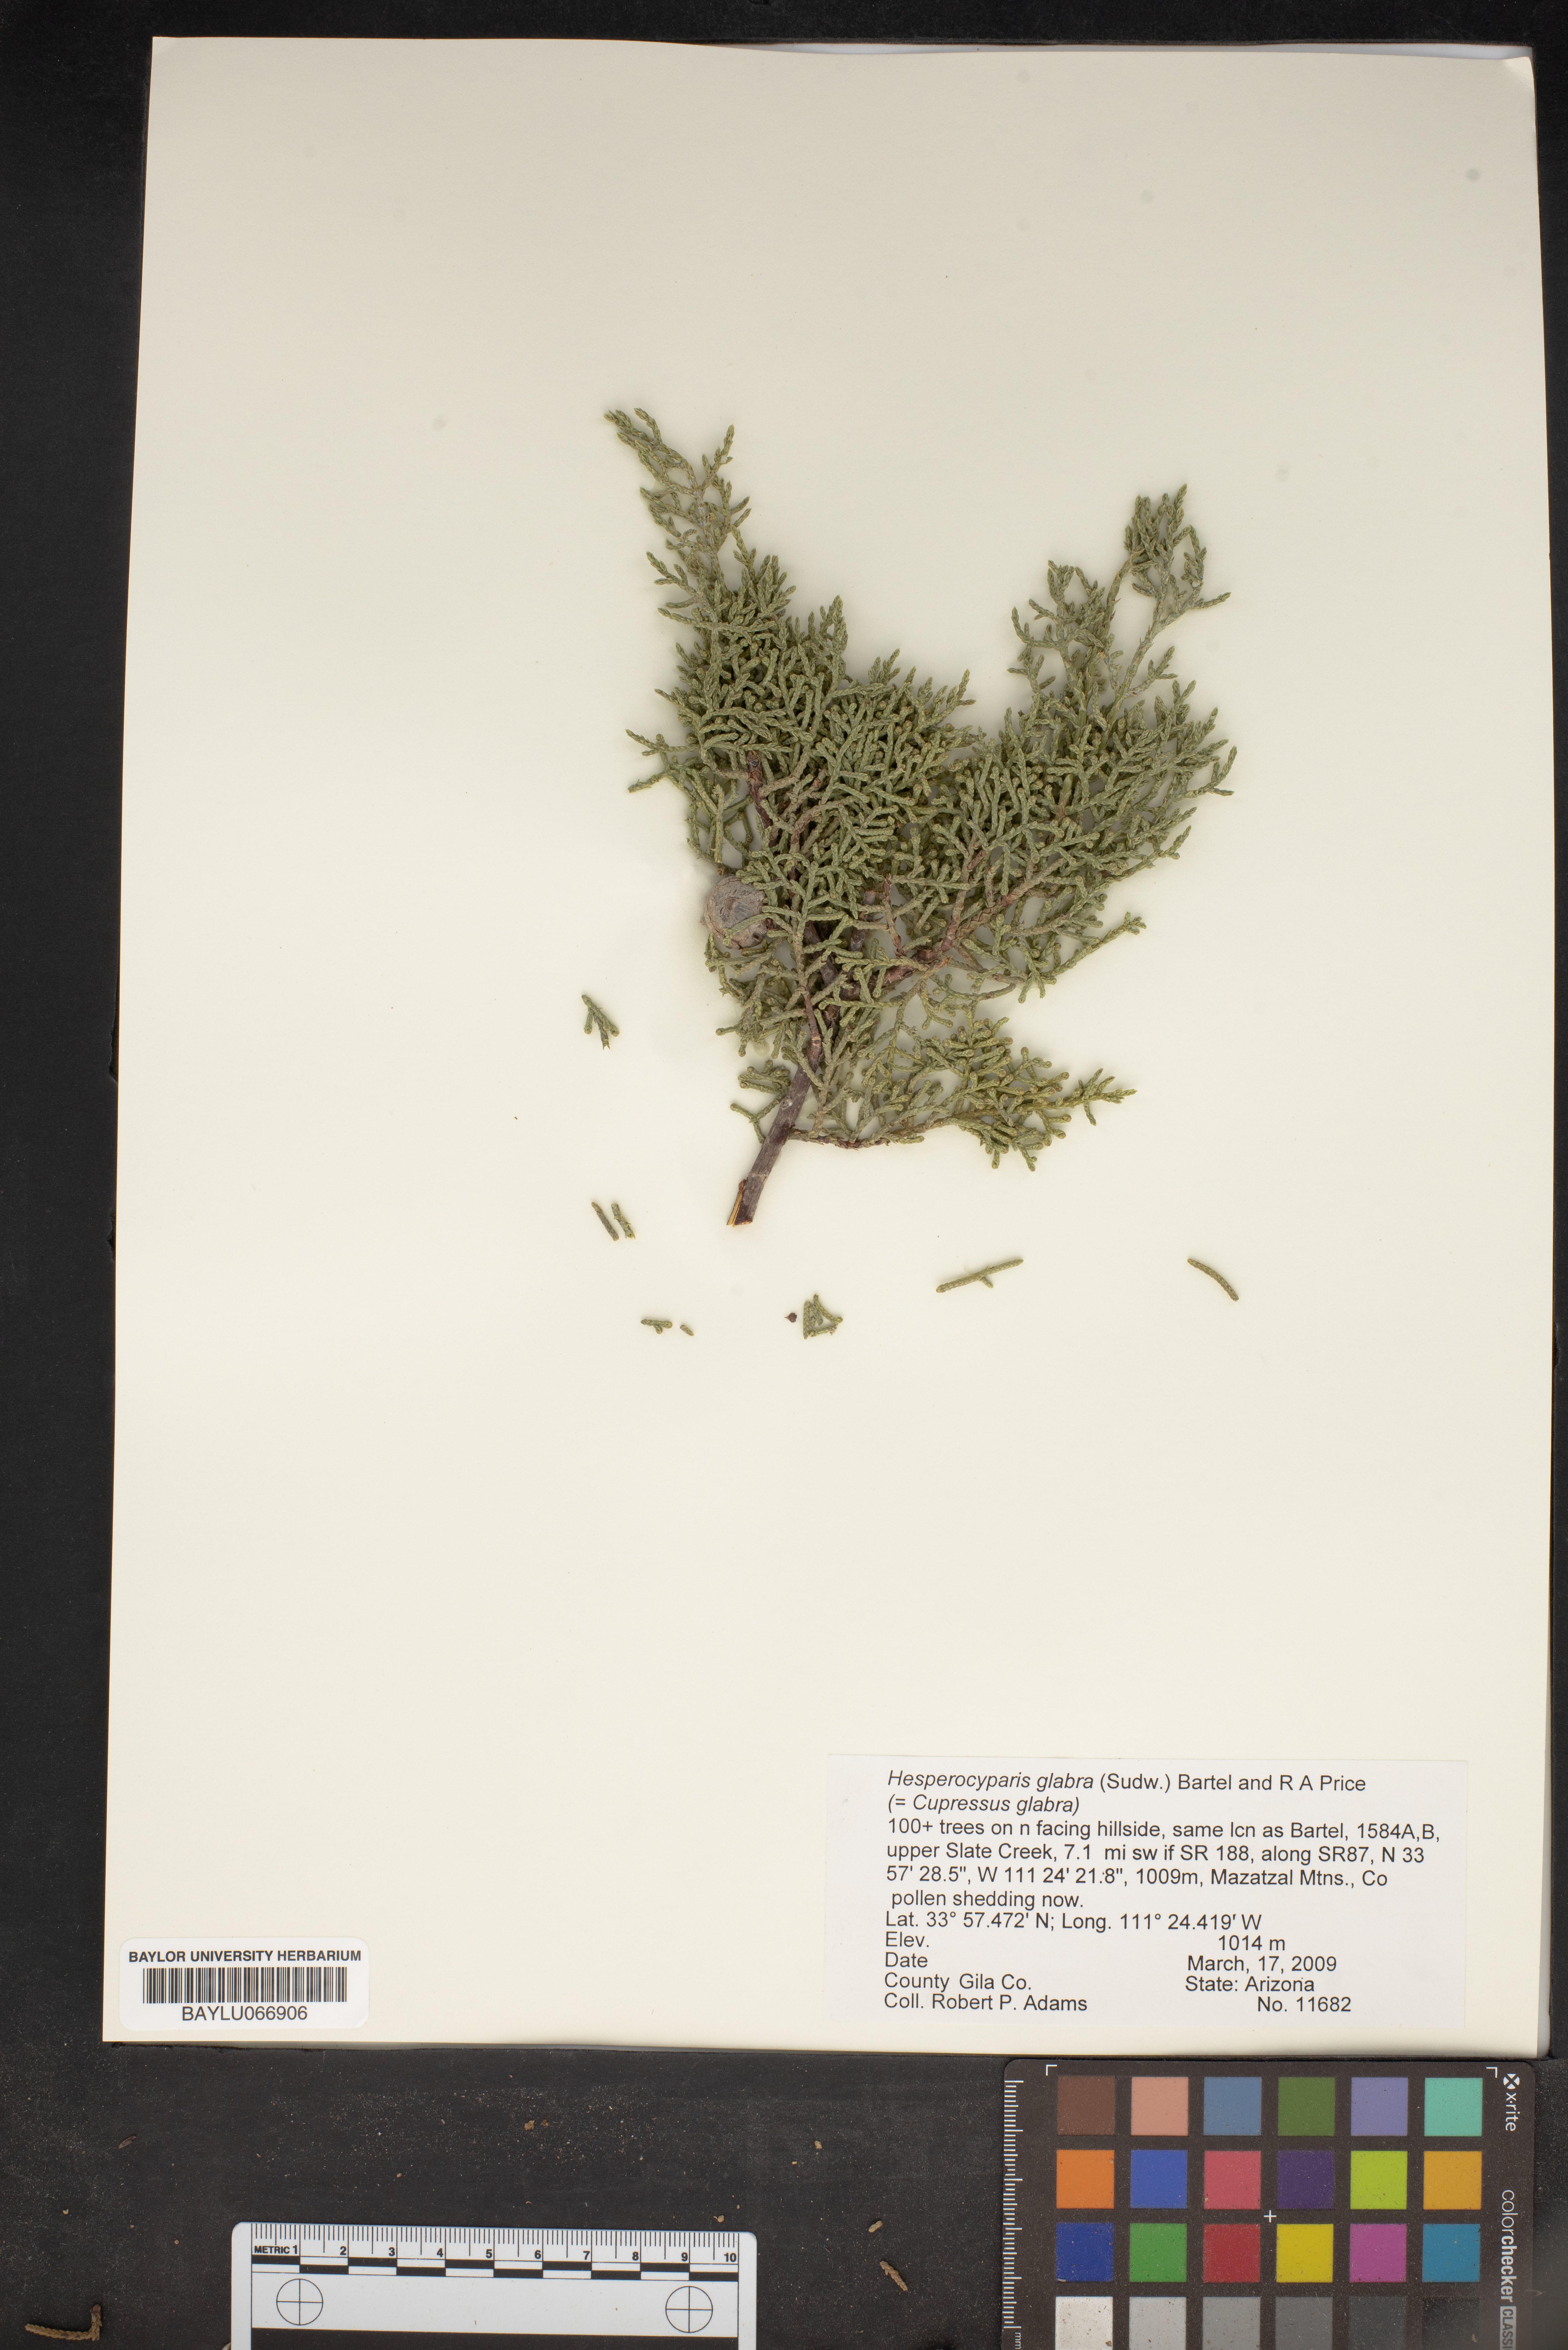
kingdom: Plantae
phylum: Tracheophyta
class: Pinopsida
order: Pinales
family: Cupressaceae
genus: Cupressus
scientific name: Cupressus arizonica
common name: Arizona cypress
